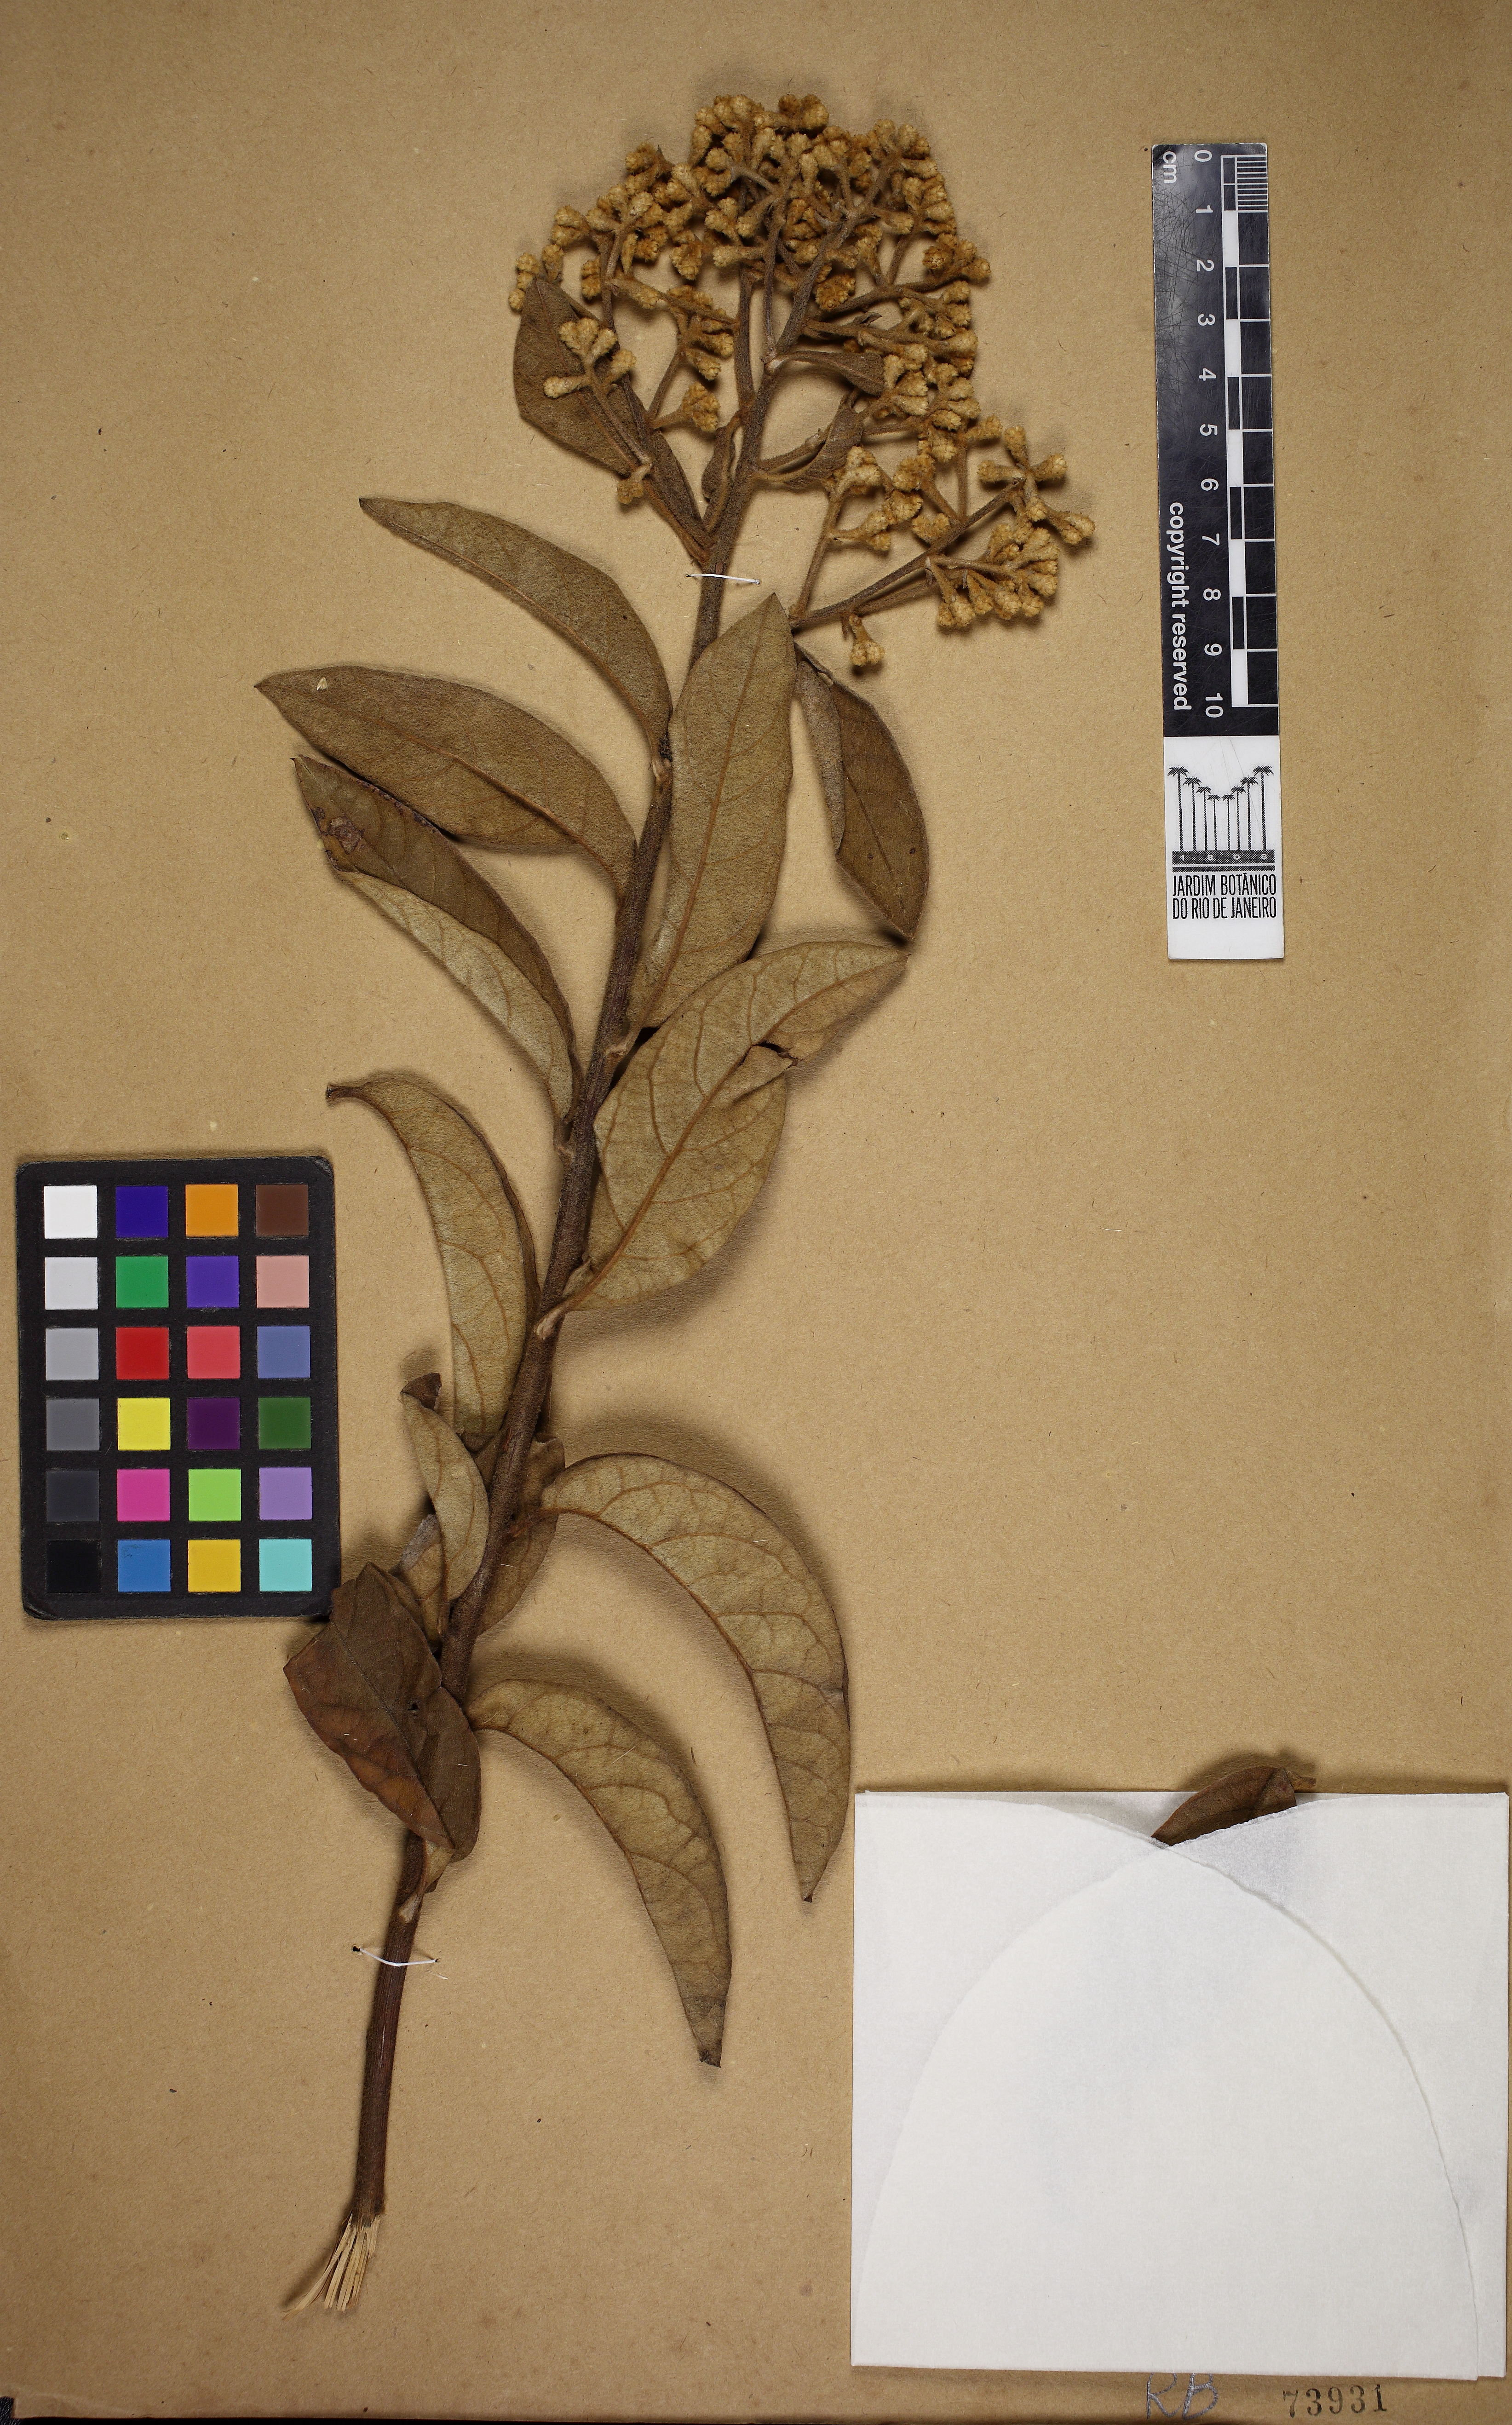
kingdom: Plantae
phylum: Tracheophyta
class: Magnoliopsida
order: Asterales
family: Asteraceae
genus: Moquiniastrum
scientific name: Moquiniastrum paniculatum
